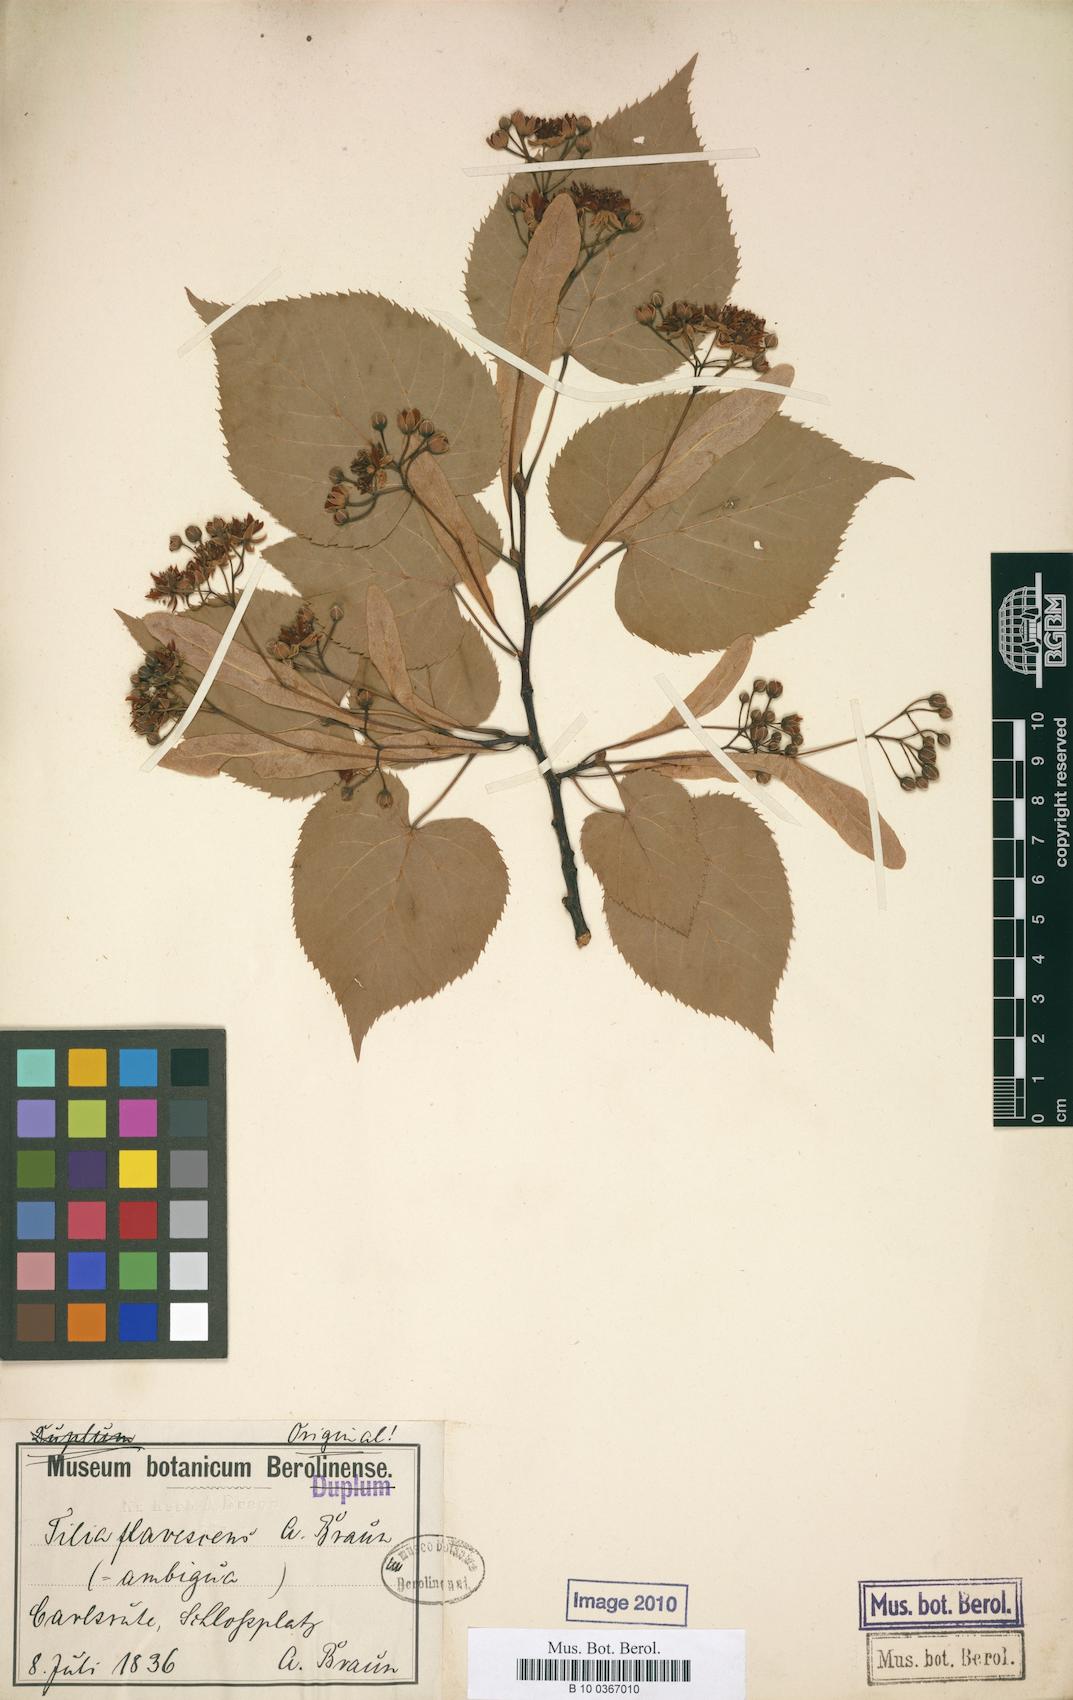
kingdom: Plantae
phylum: Tracheophyta
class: Magnoliopsida
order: Malvales
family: Malvaceae
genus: Tilia
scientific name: Tilia flavescens
